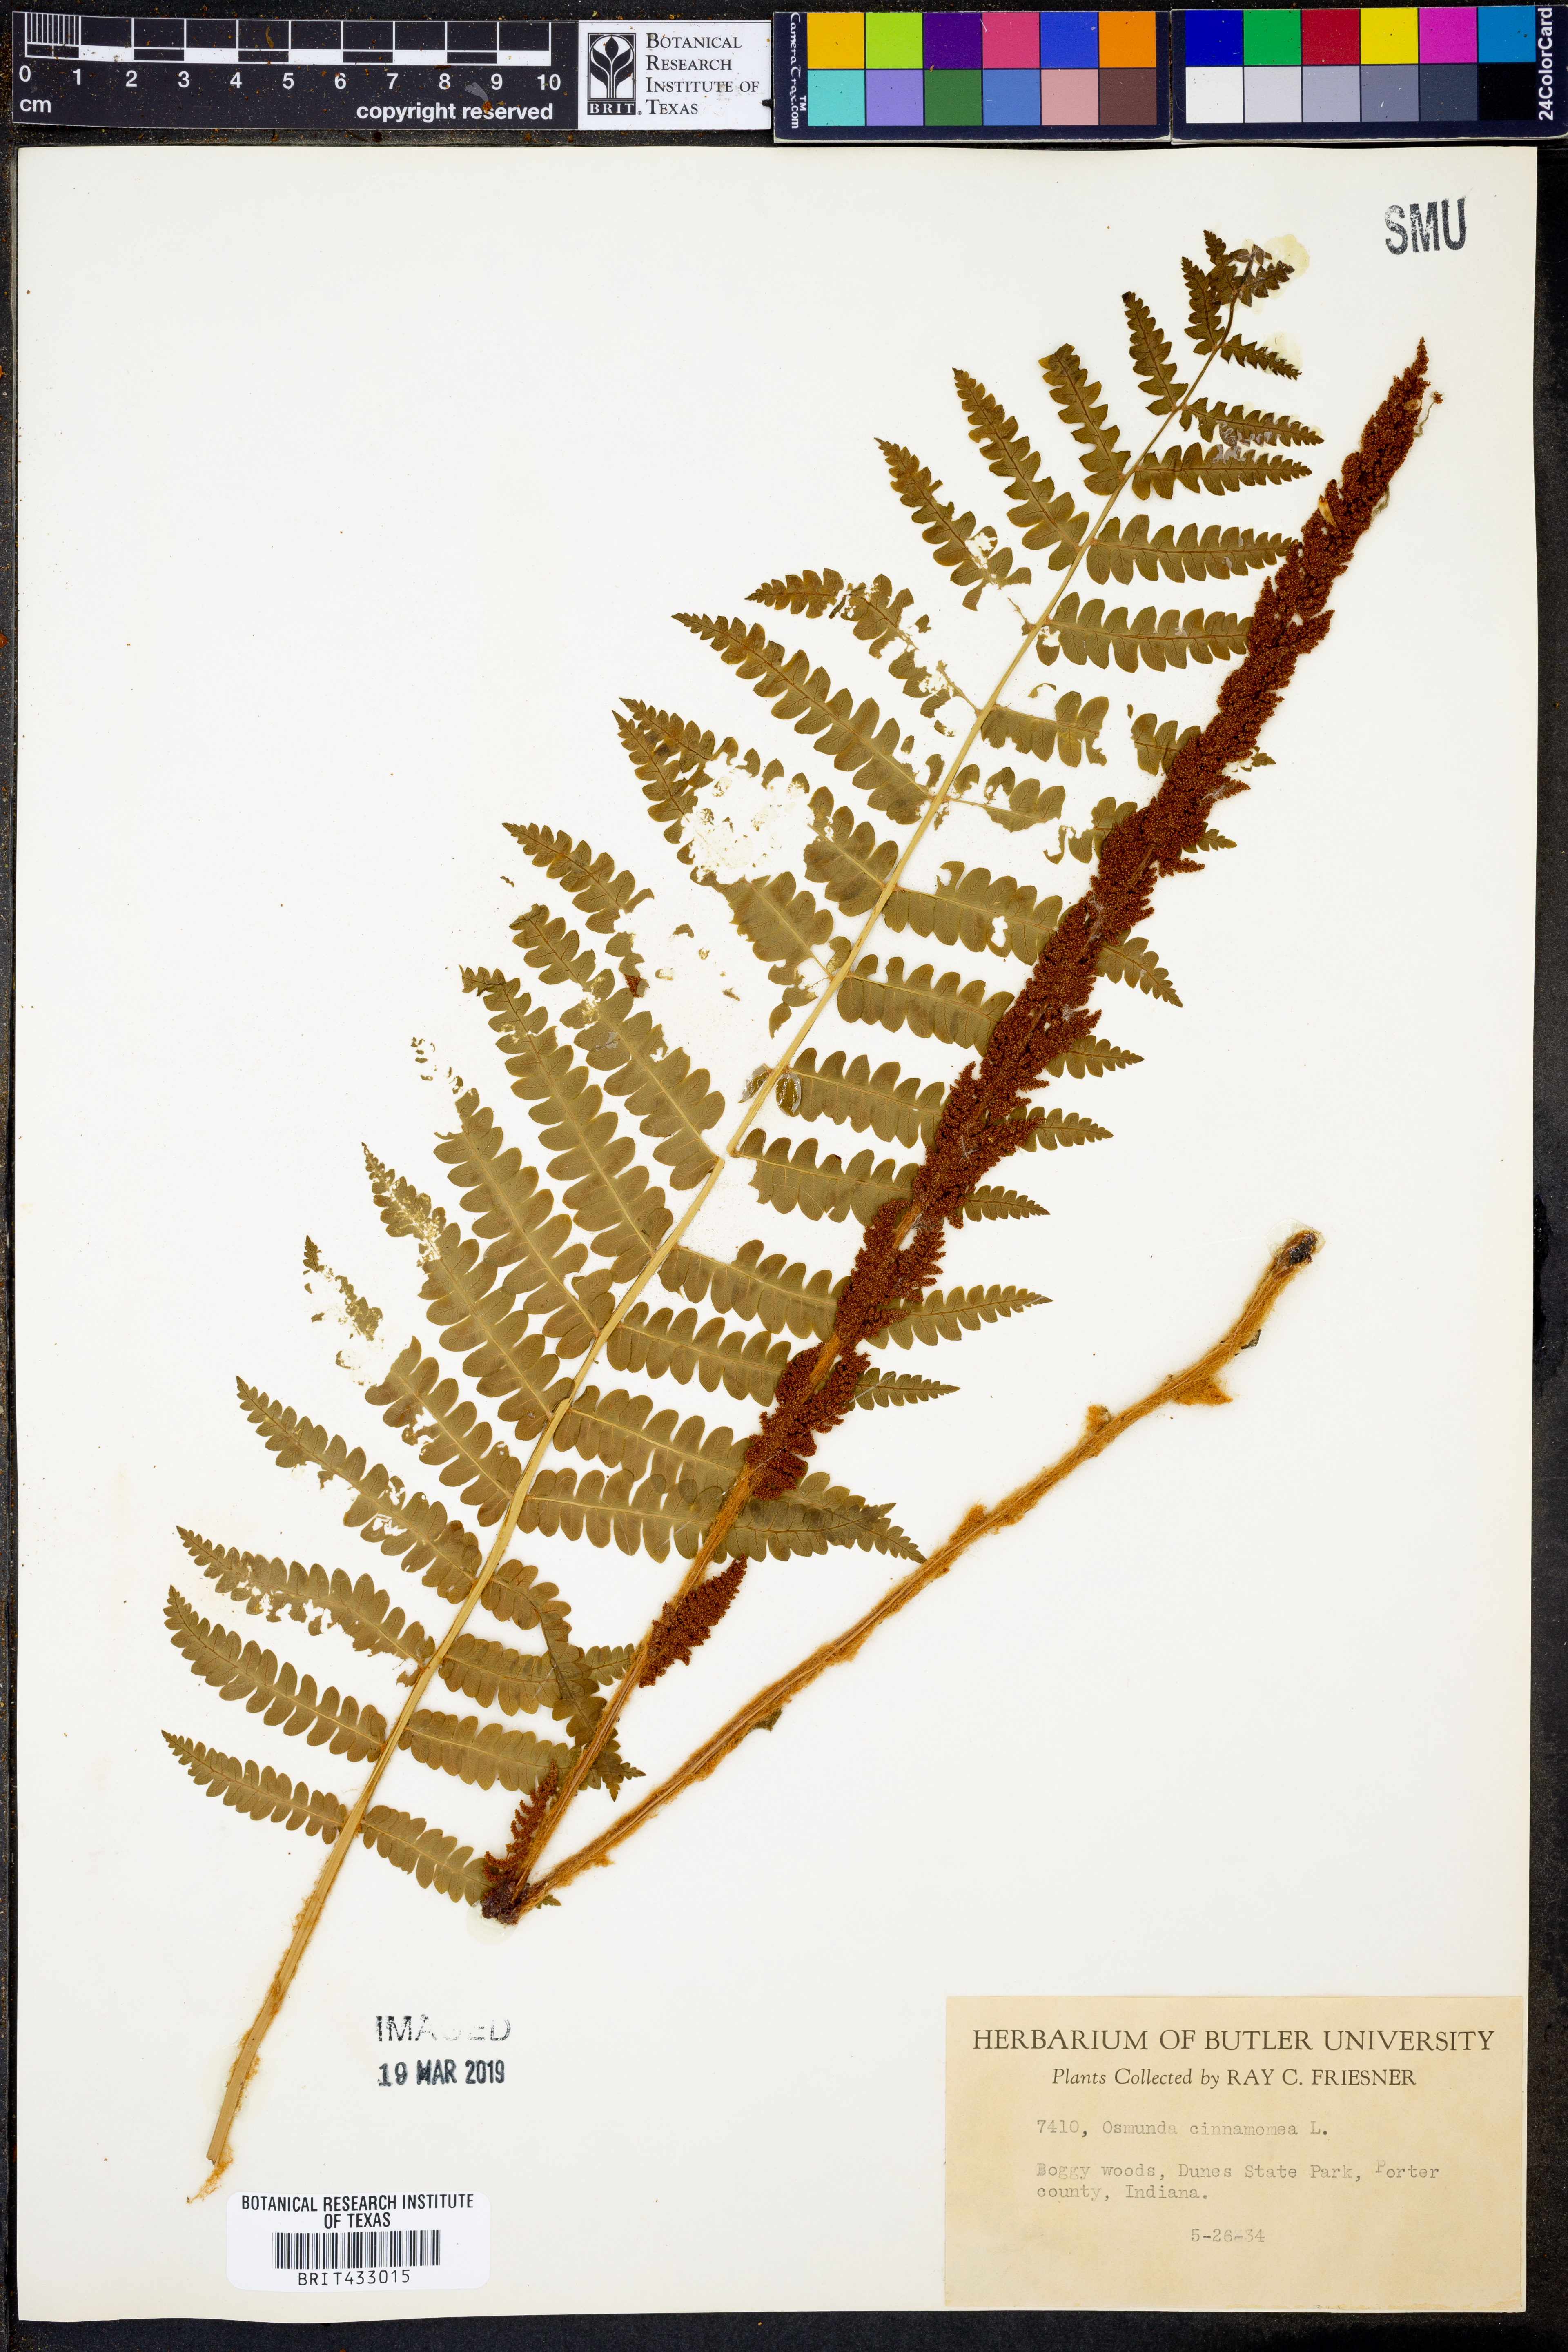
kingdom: Plantae
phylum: Tracheophyta
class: Polypodiopsida
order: Osmundales
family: Osmundaceae
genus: Osmundastrum
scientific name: Osmundastrum cinnamomeum
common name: Cinnamon fern
